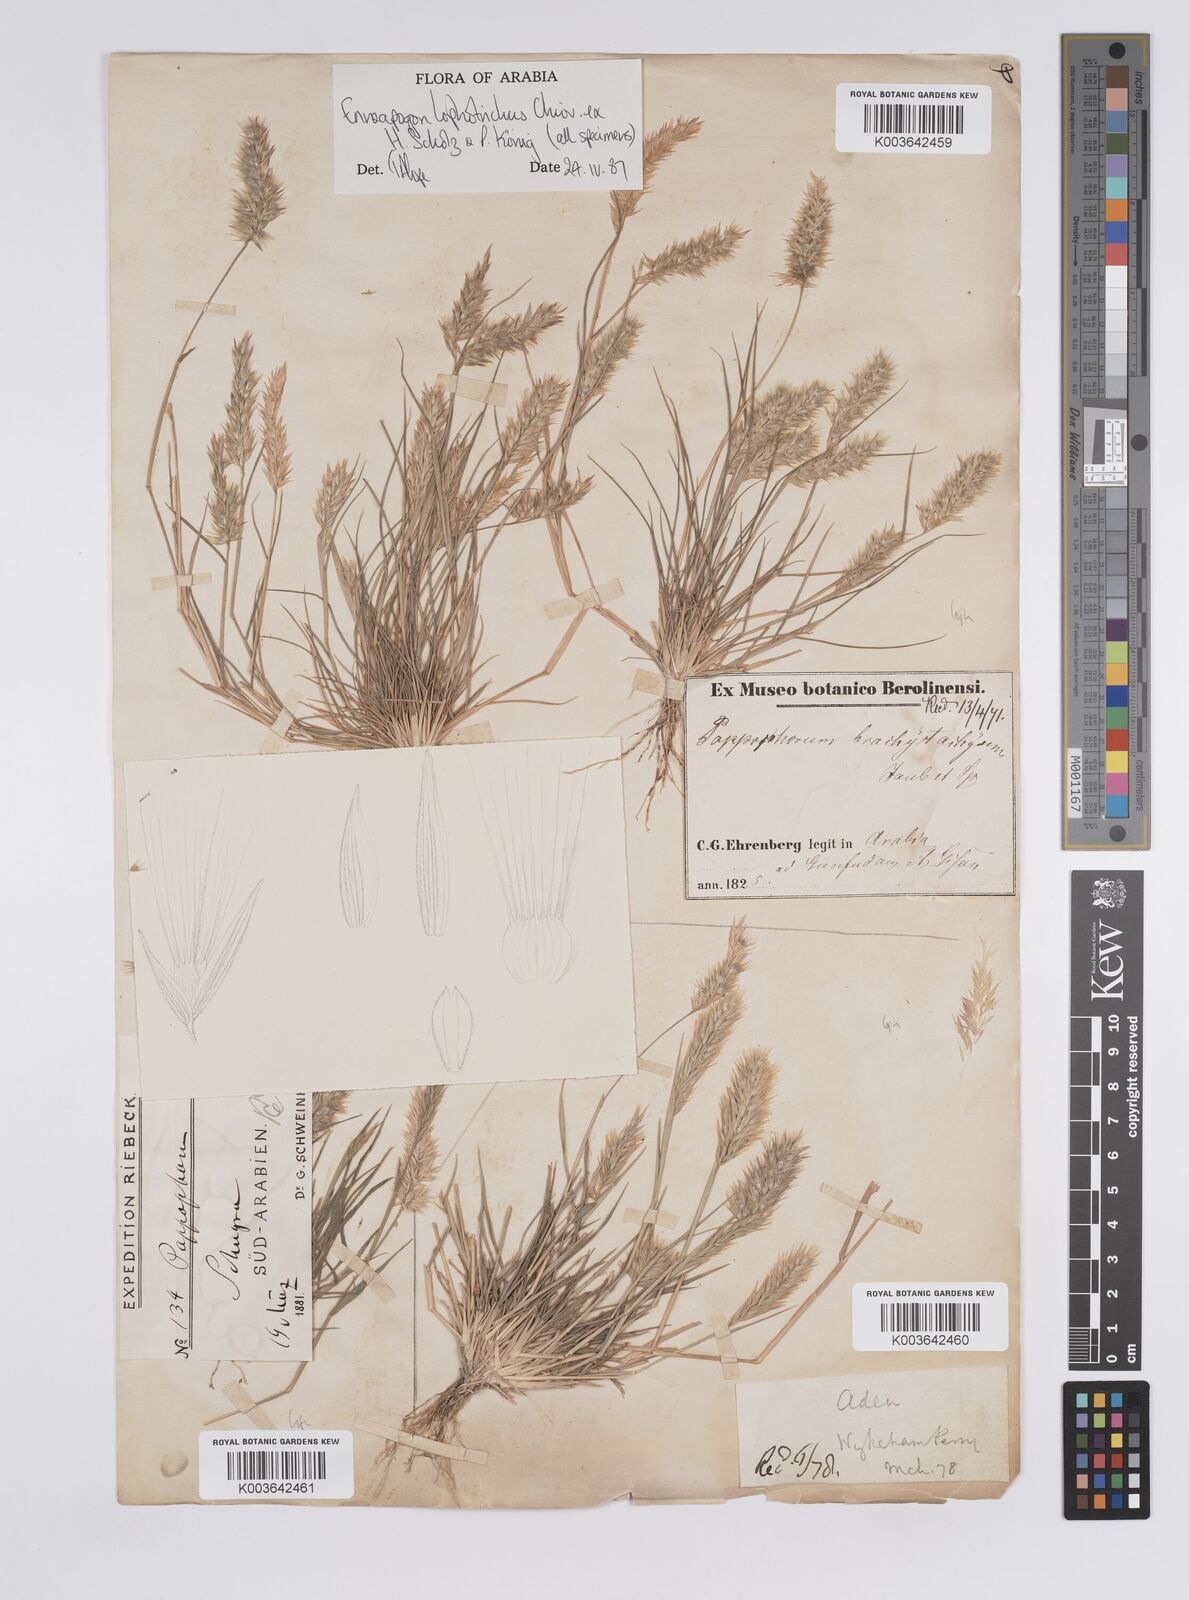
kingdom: Plantae
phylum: Tracheophyta
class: Liliopsida
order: Poales
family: Poaceae
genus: Enneapogon
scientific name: Enneapogon lophotrichus
